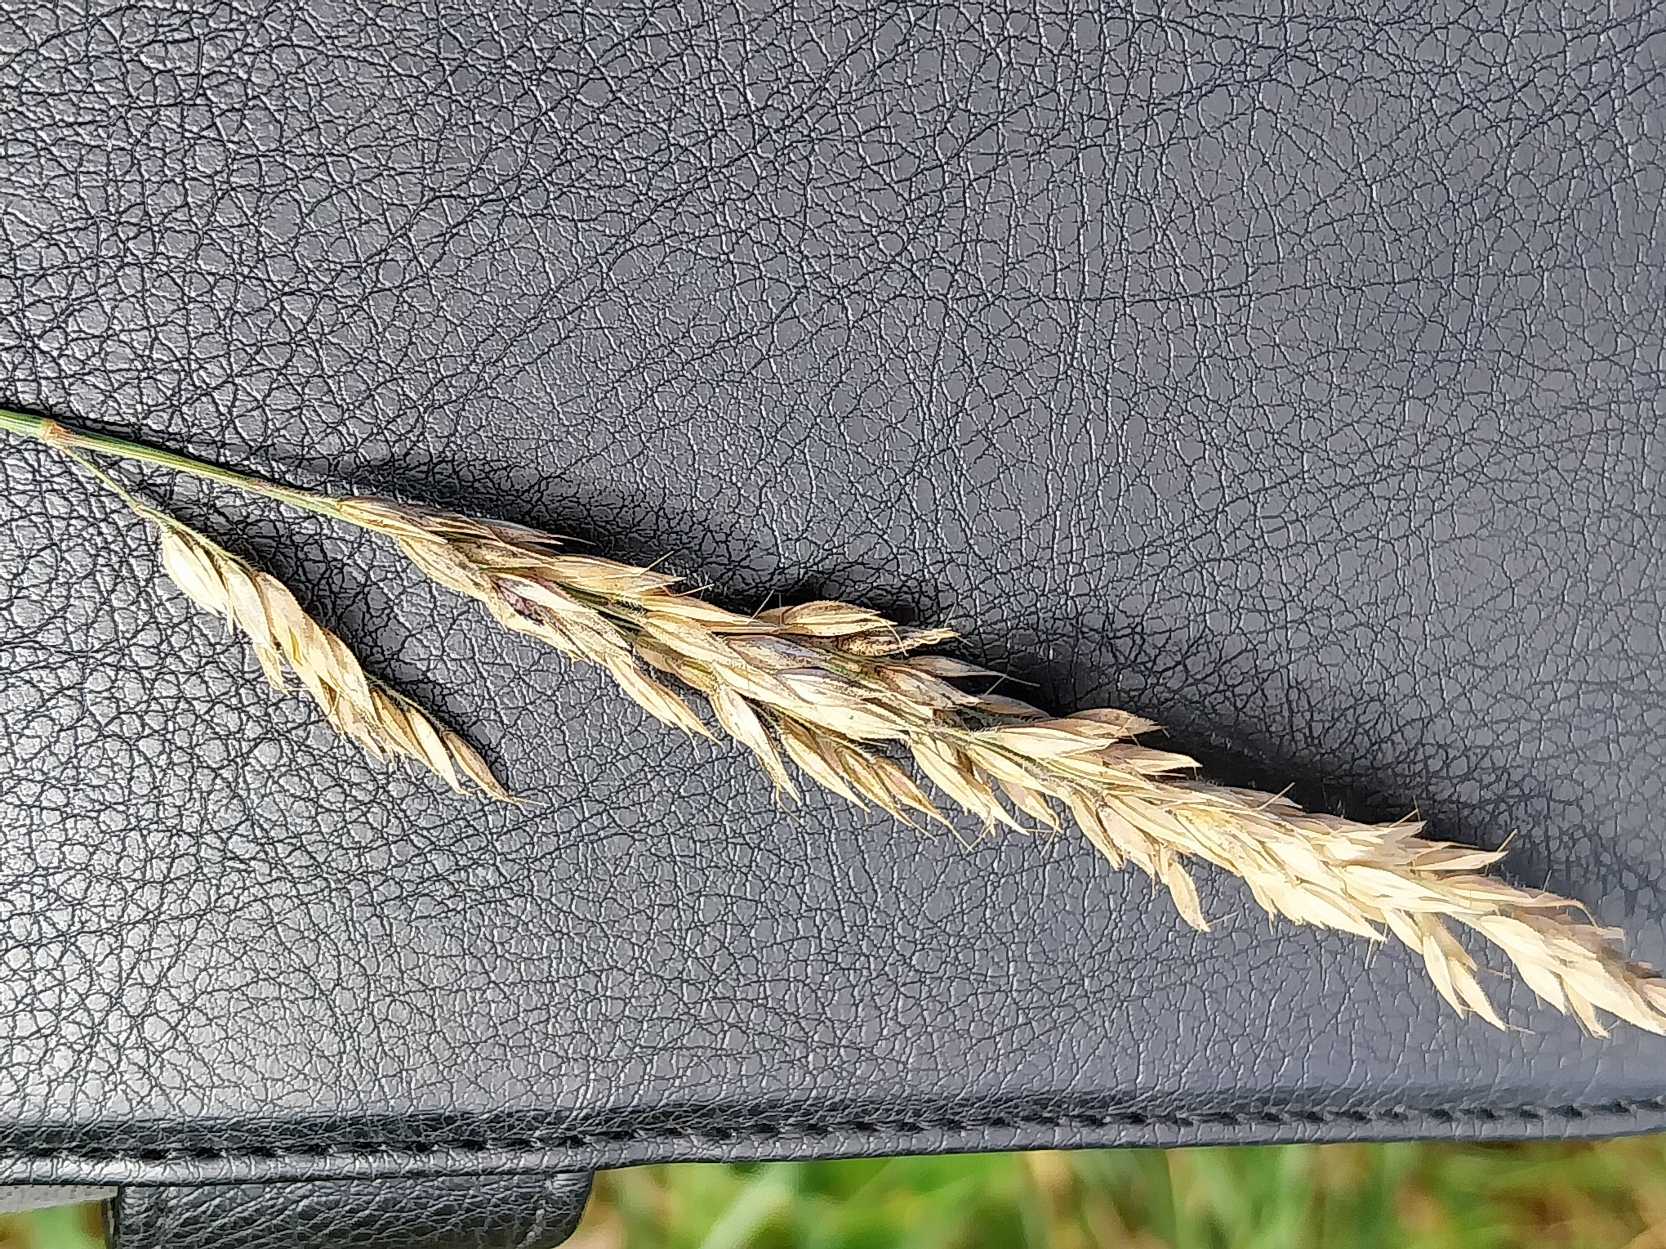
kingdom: Plantae
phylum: Tracheophyta
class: Liliopsida
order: Poales
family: Poaceae
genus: Holcus
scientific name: Holcus lanatus
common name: Fløjlsgræs
